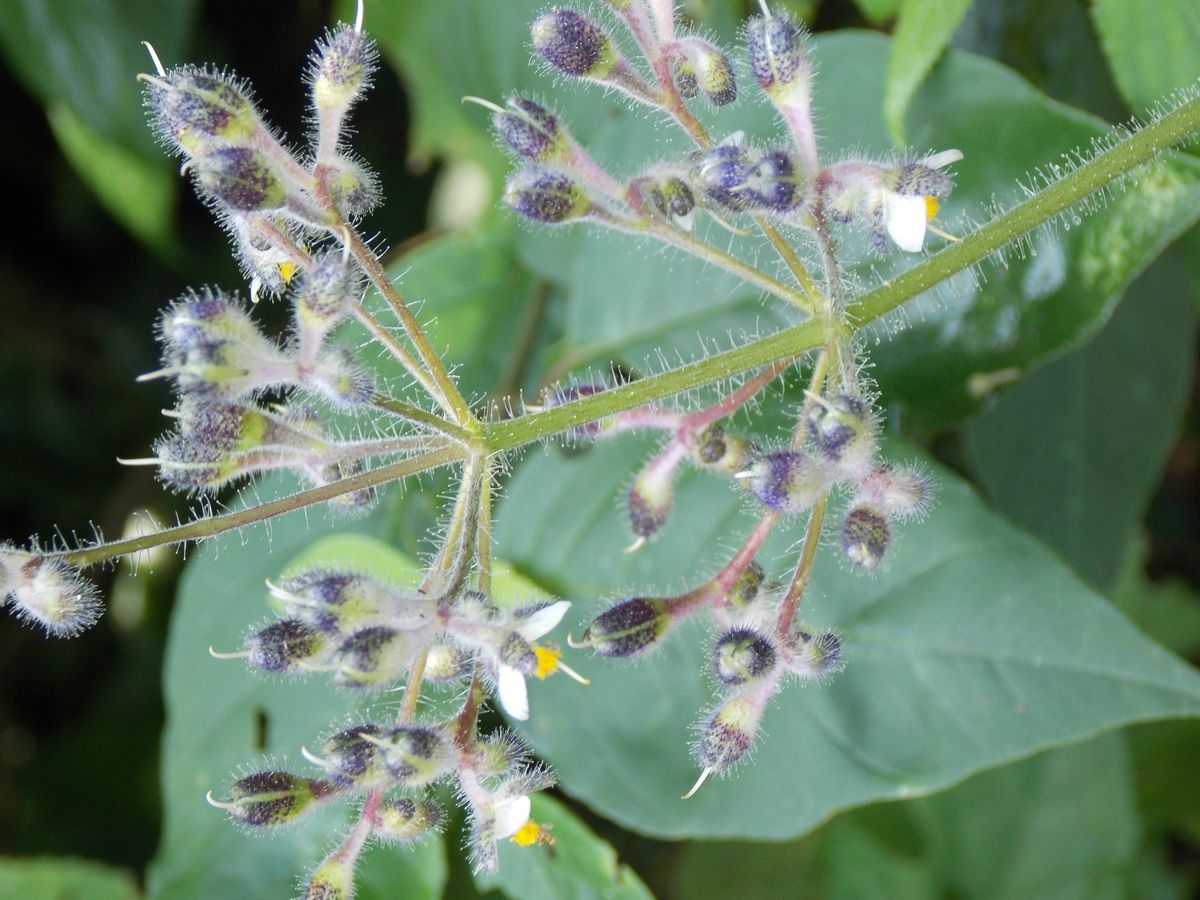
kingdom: Plantae
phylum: Tracheophyta
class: Liliopsida
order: Commelinales
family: Commelinaceae
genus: Tinantia
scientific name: Tinantia parviflora
